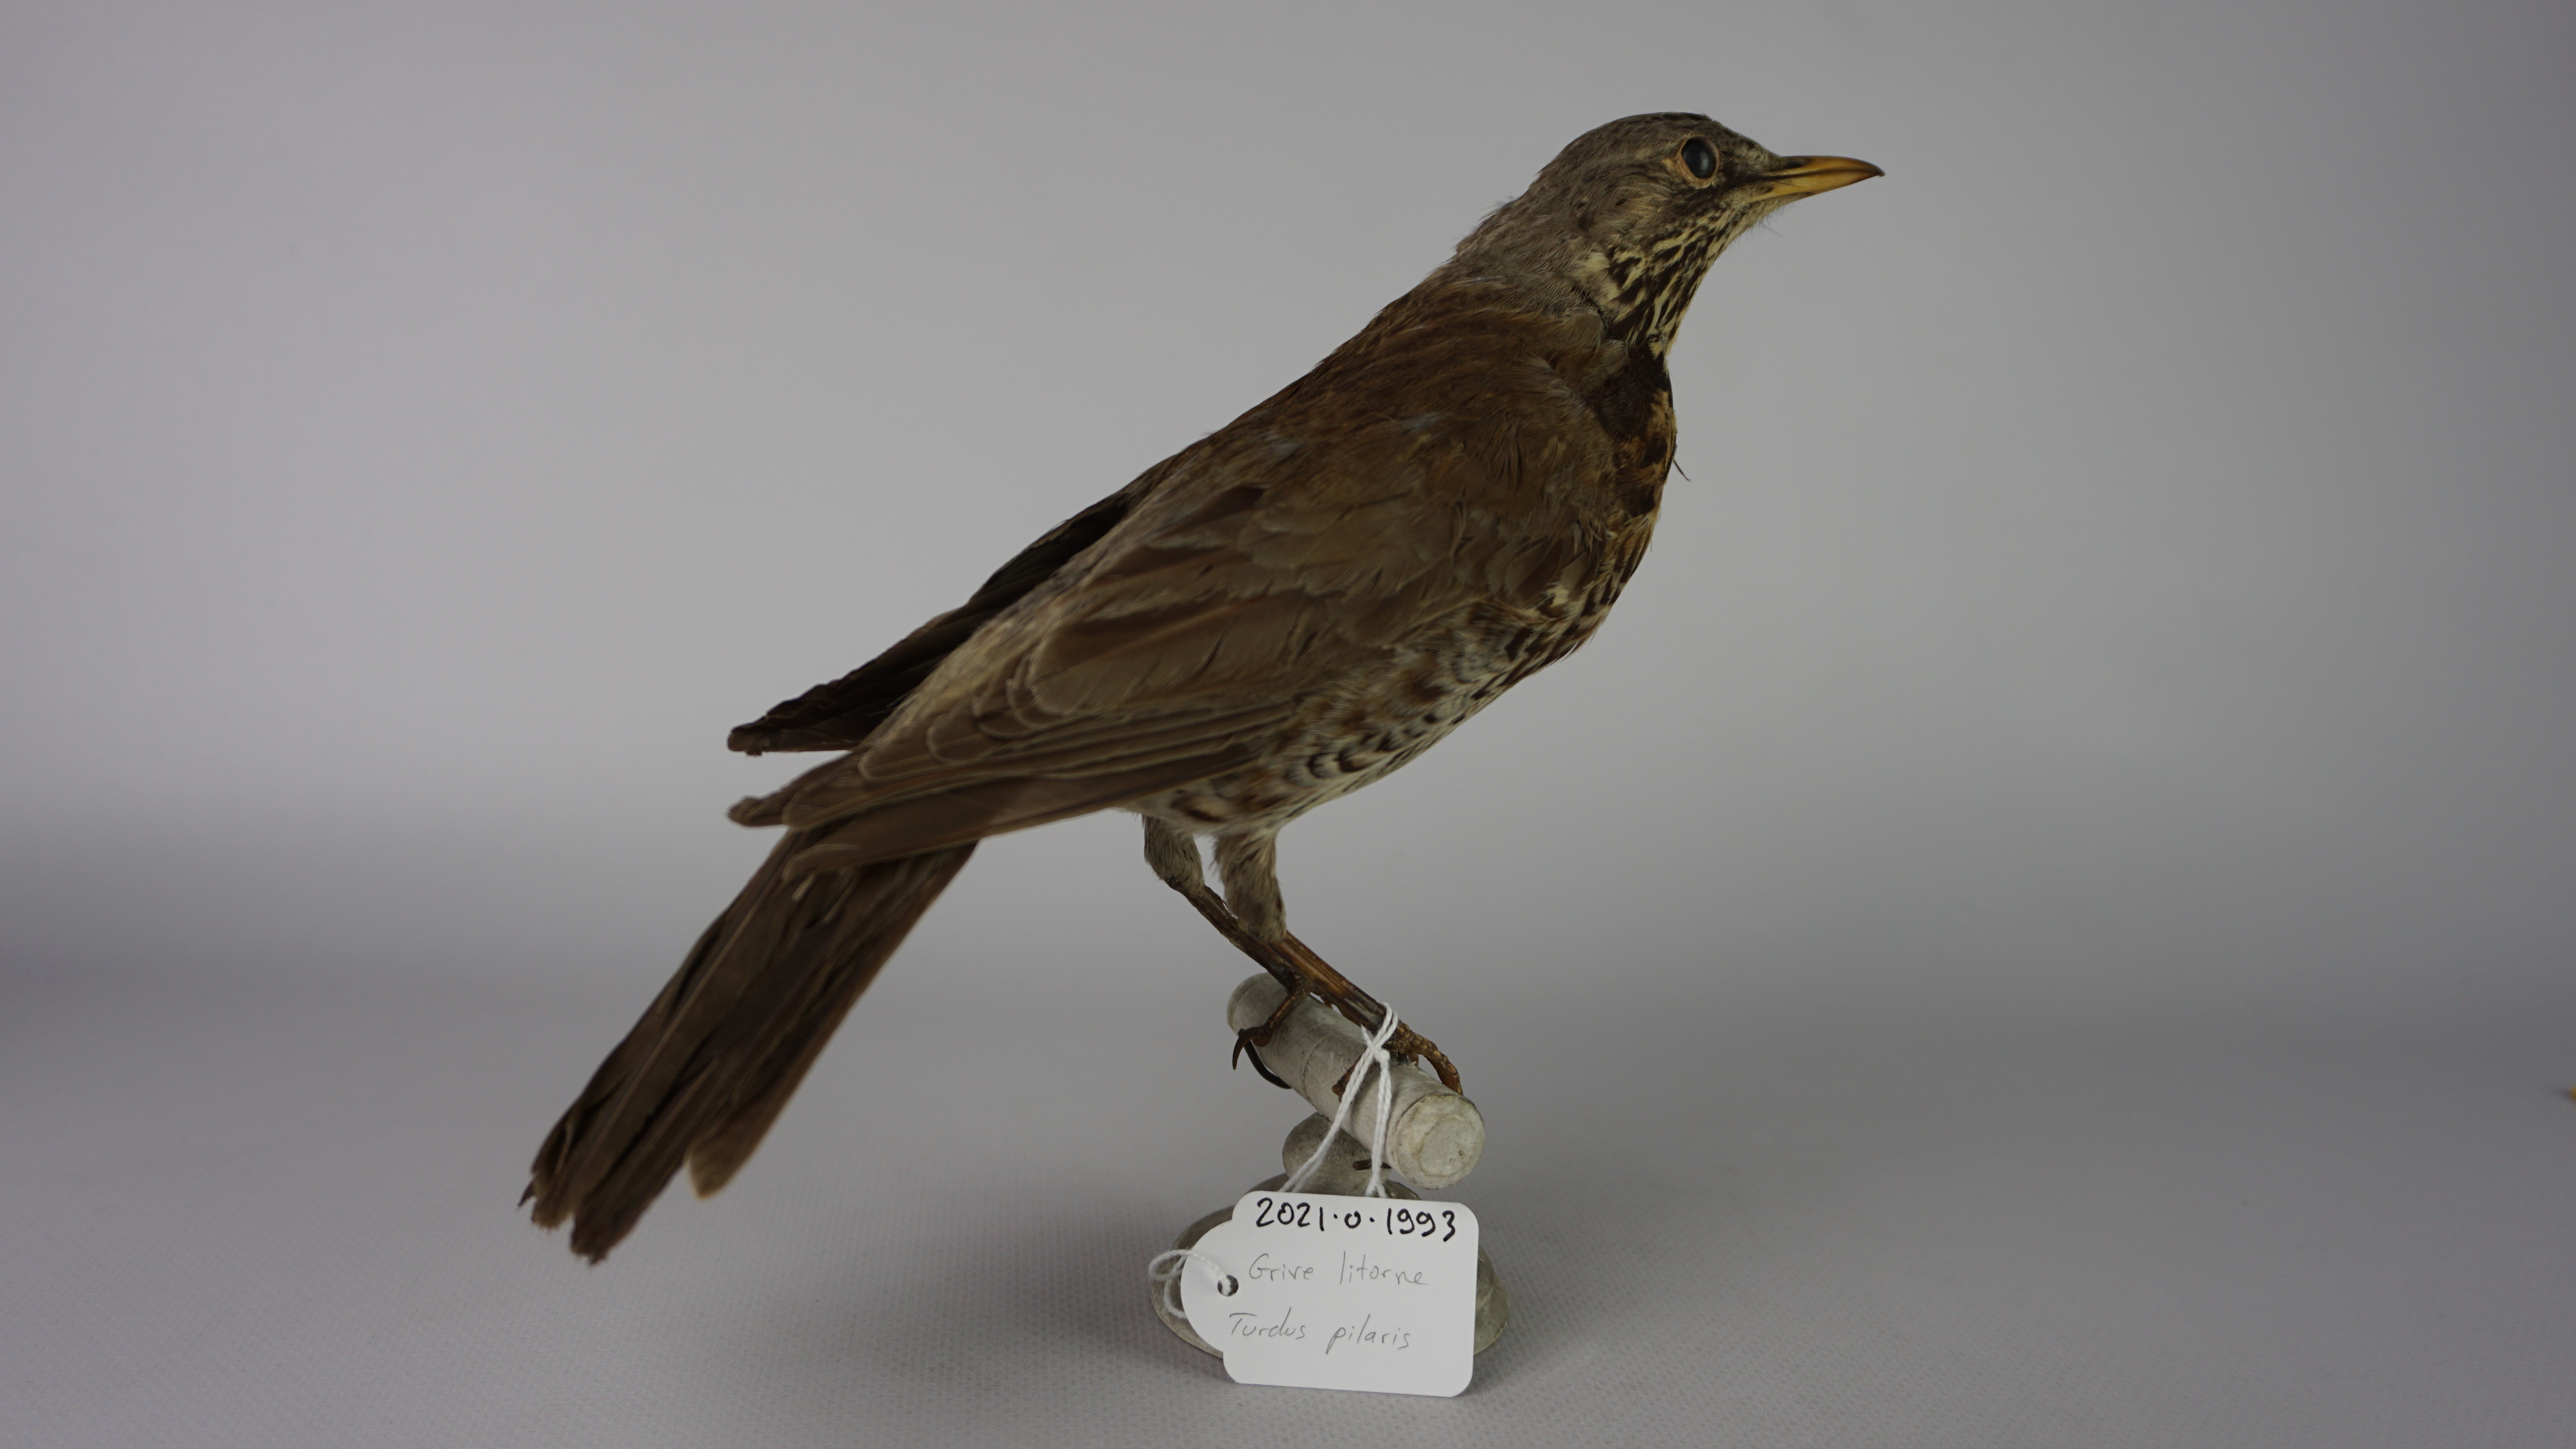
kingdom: Animalia
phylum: Chordata
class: Aves
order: Passeriformes
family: Turdidae
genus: Turdus
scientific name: Turdus pilaris
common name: Fieldfare
